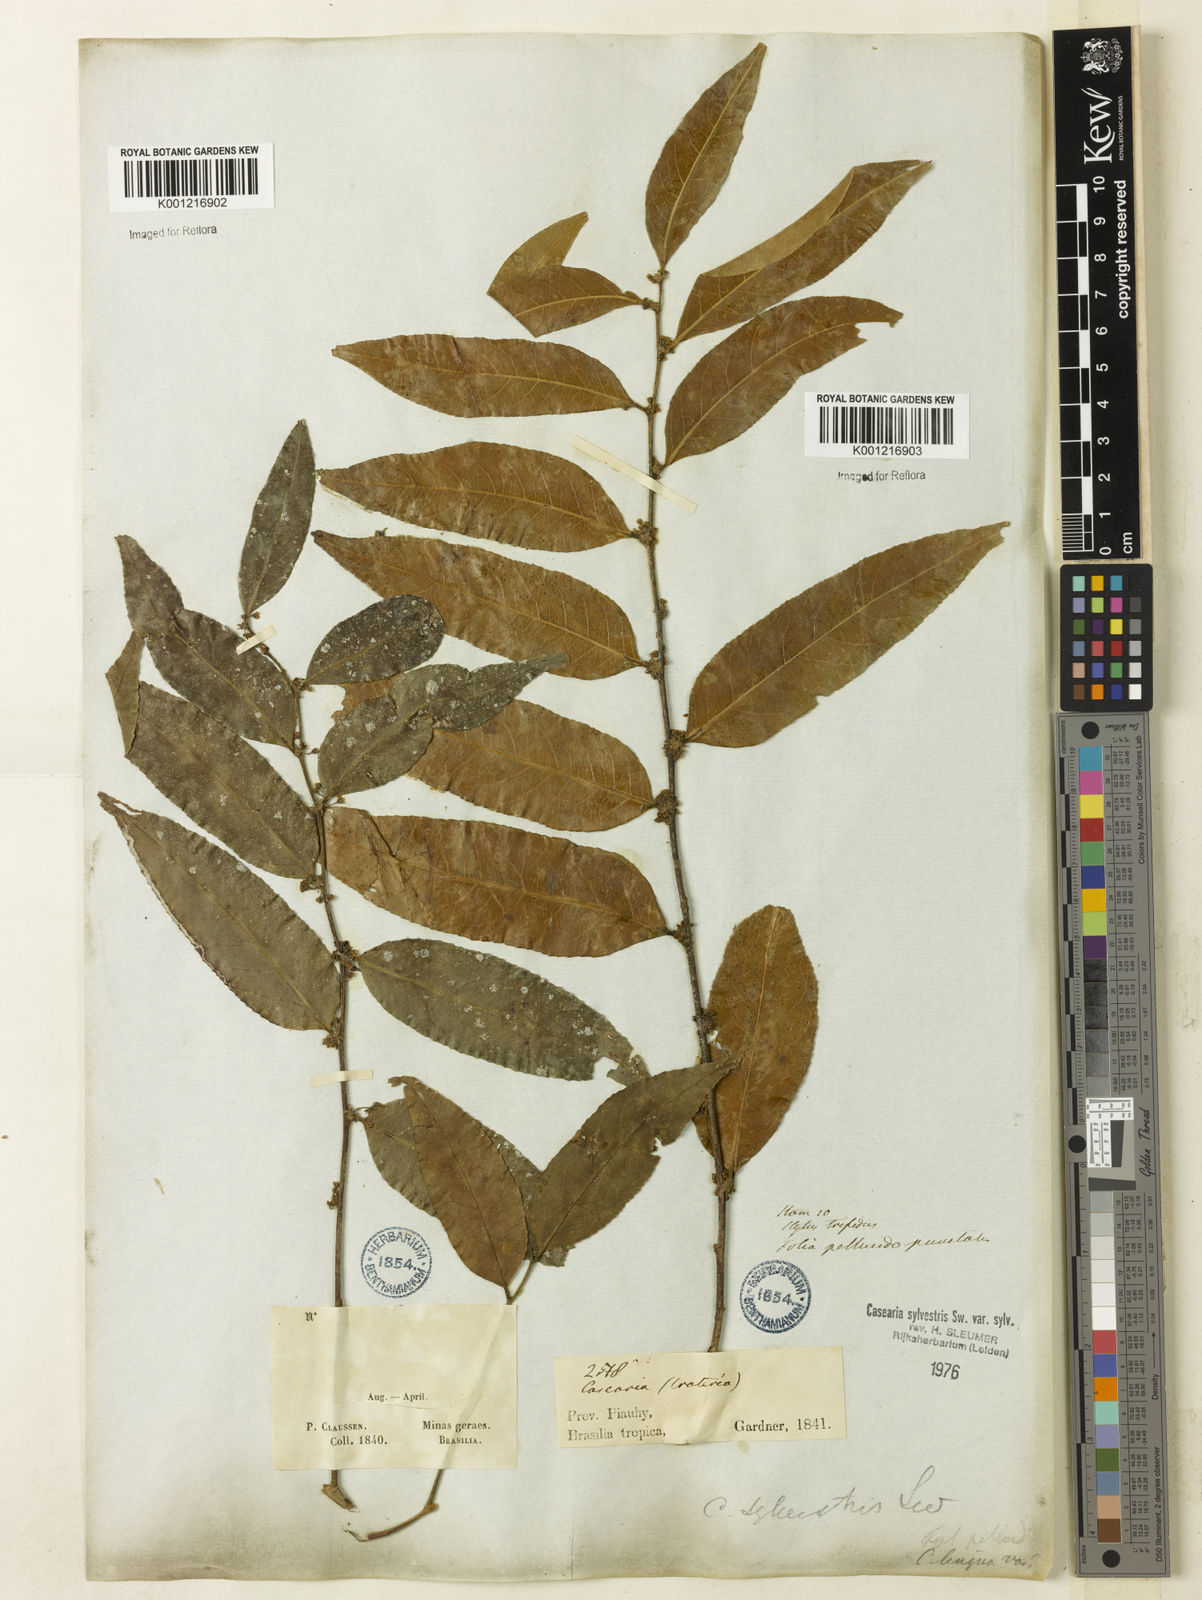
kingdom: Plantae
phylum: Tracheophyta
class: Magnoliopsida
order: Malpighiales
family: Salicaceae
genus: Casearia
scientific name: Casearia sylvestris
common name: Wild sage
